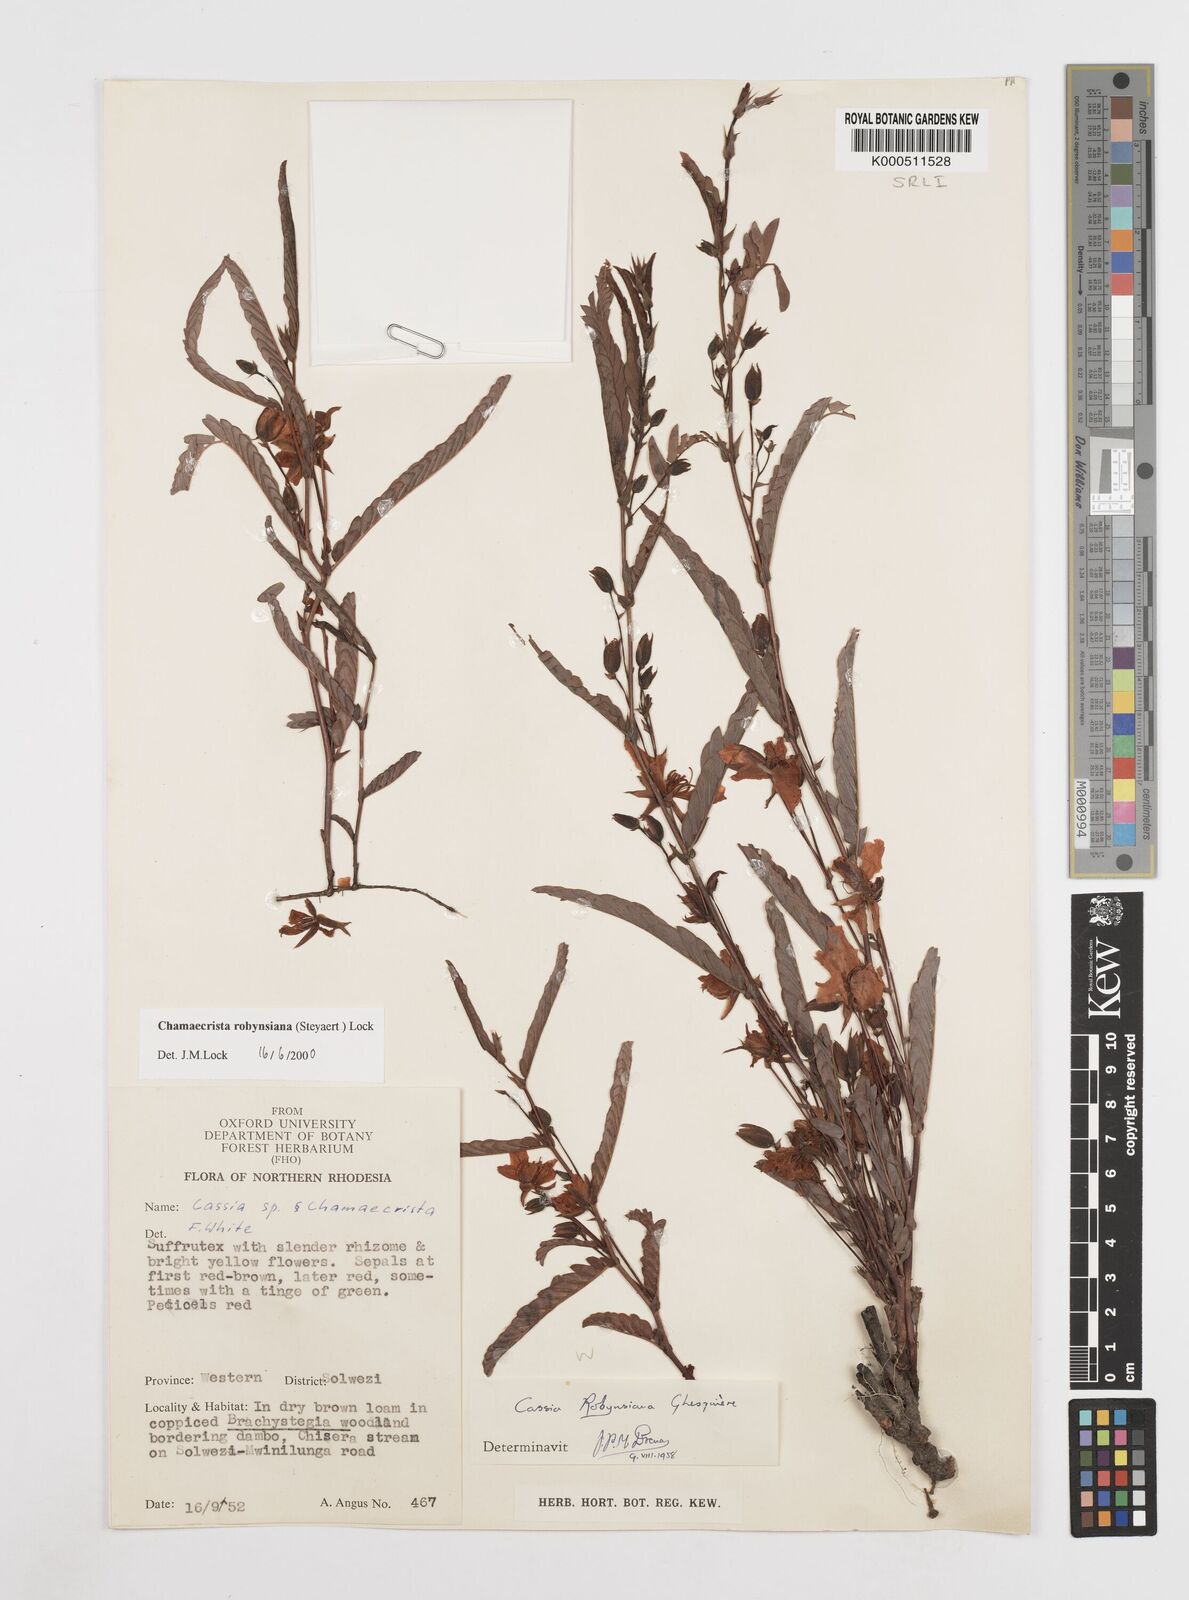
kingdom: Plantae
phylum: Tracheophyta
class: Magnoliopsida
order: Fabales
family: Fabaceae
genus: Chamaecrista
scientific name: Chamaecrista robynsiana
